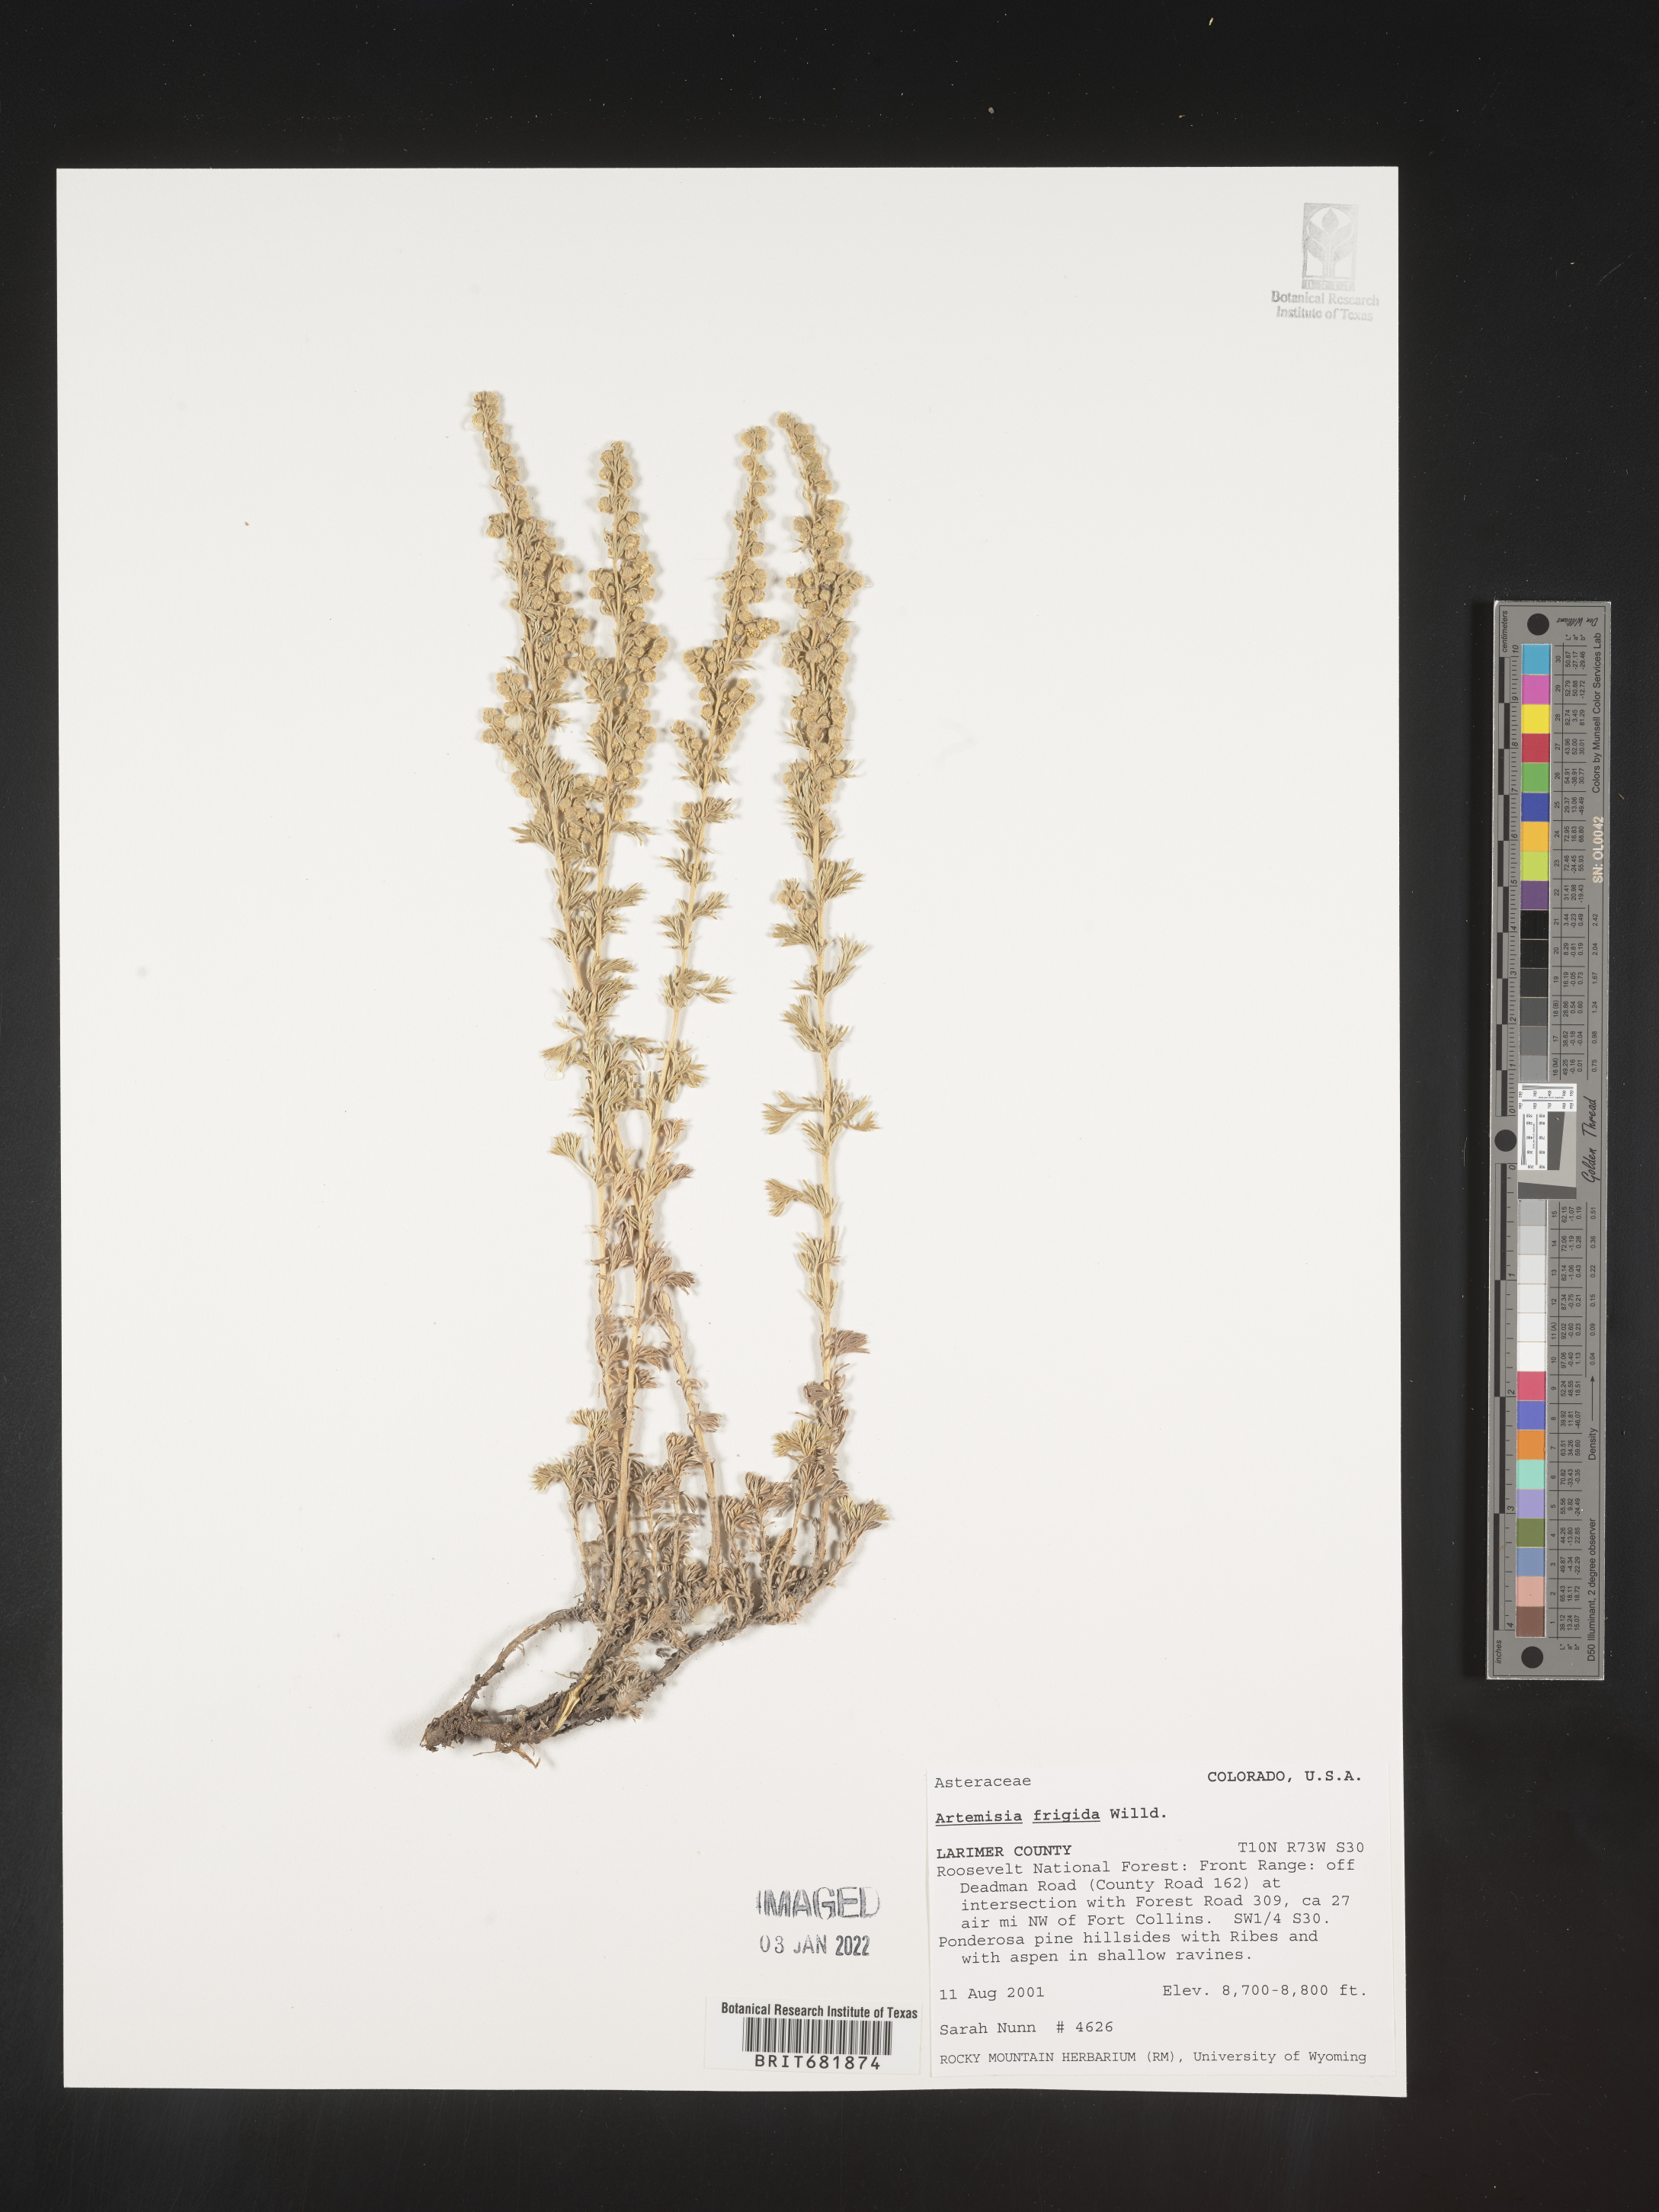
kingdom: Plantae
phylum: Tracheophyta
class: Magnoliopsida
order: Asterales
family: Asteraceae
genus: Artemisia
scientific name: Artemisia frigida
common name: Prairie sagewort
